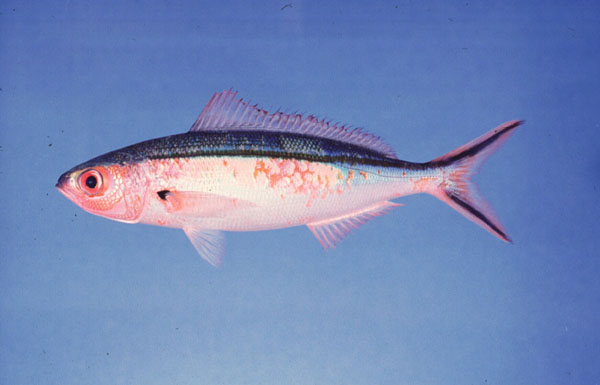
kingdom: Animalia
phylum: Chordata
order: Perciformes
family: Caesionidae
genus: Pterocaesio
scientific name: Pterocaesio tile
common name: Dark-banded fusilier
